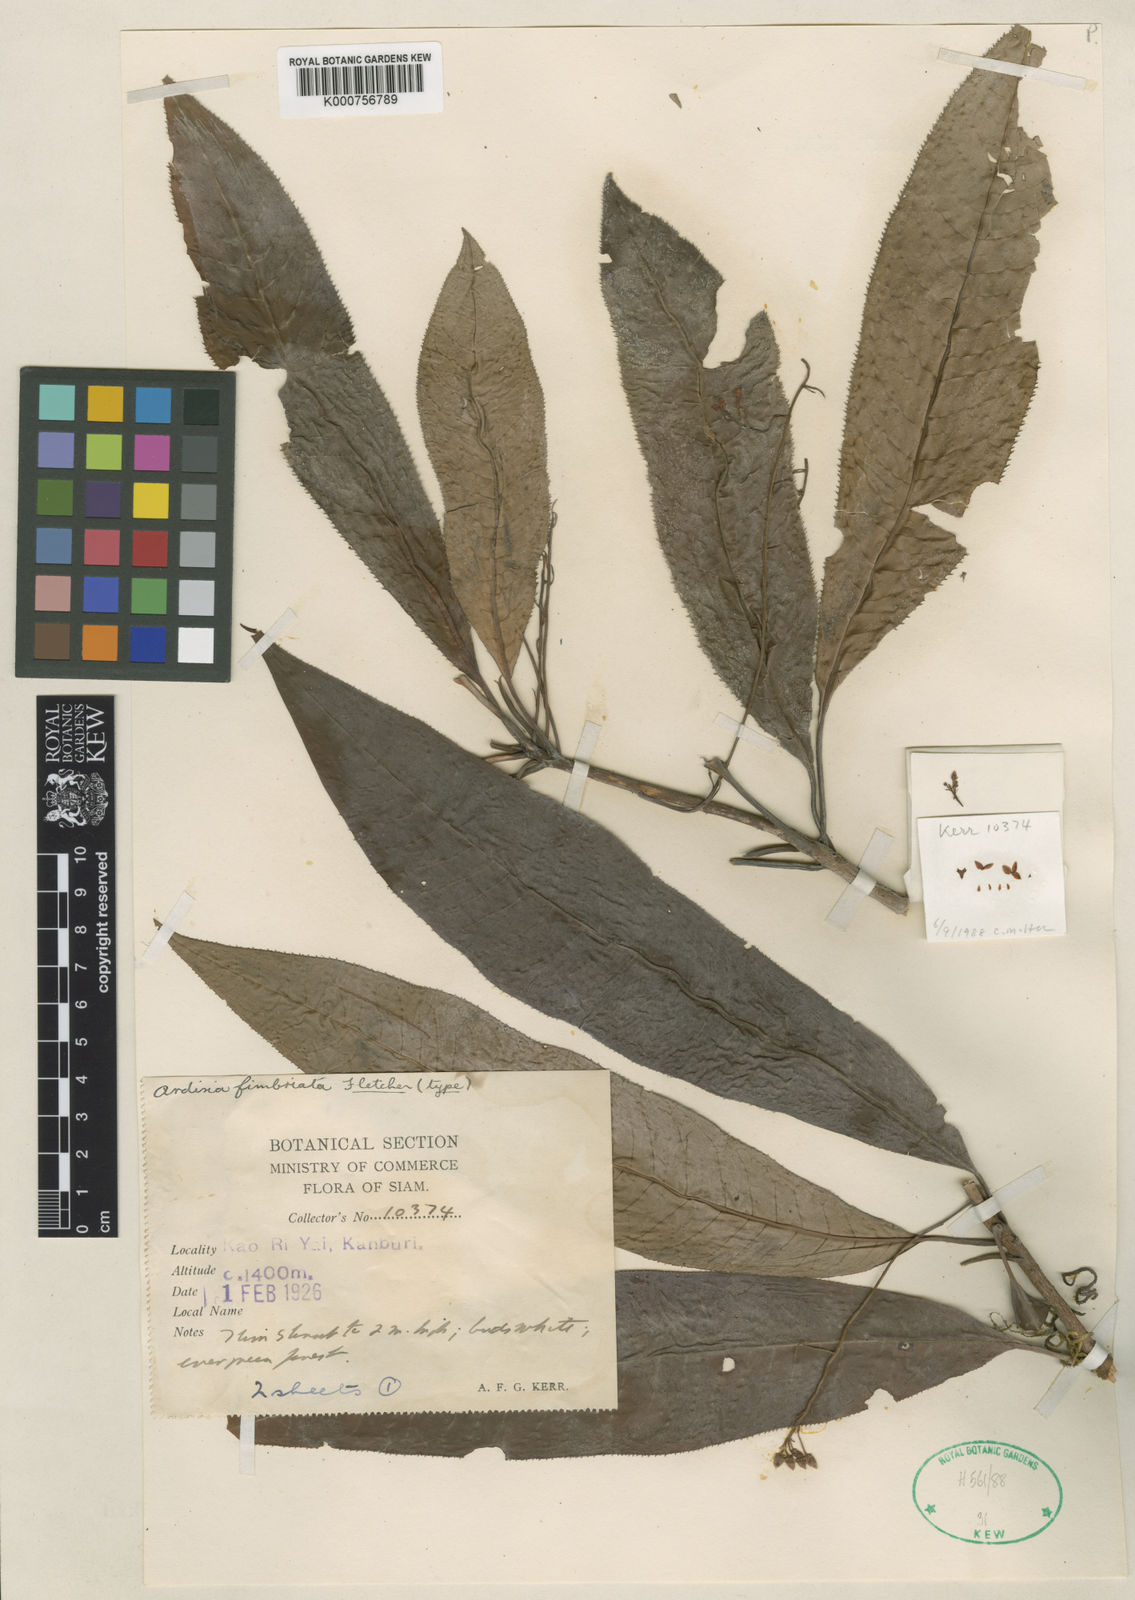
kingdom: Plantae
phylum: Tracheophyta
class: Magnoliopsida
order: Ericales
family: Primulaceae
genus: Ardisia
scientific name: Ardisia fimbriata
